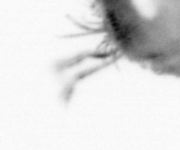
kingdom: Animalia
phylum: Chaetognatha
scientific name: Chaetognatha
